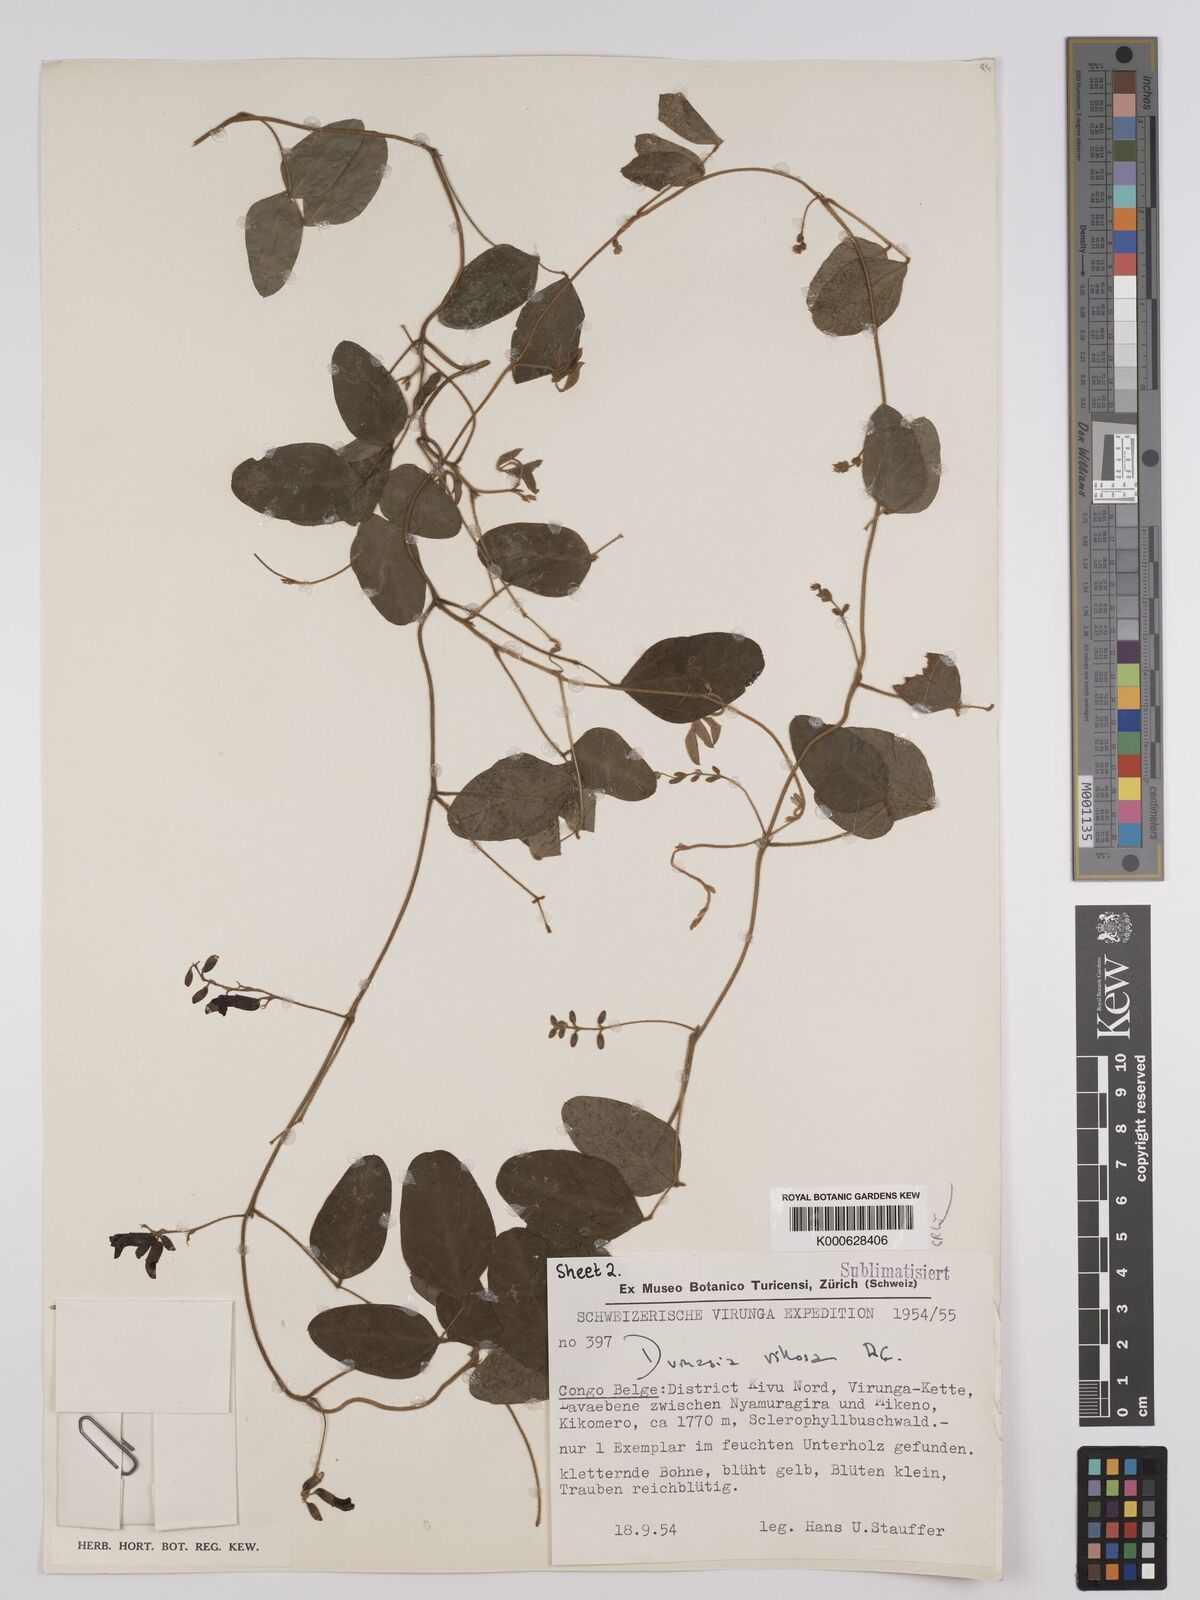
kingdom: Plantae
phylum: Tracheophyta
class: Magnoliopsida
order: Fabales
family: Fabaceae
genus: Dumasia
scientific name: Dumasia villosa
